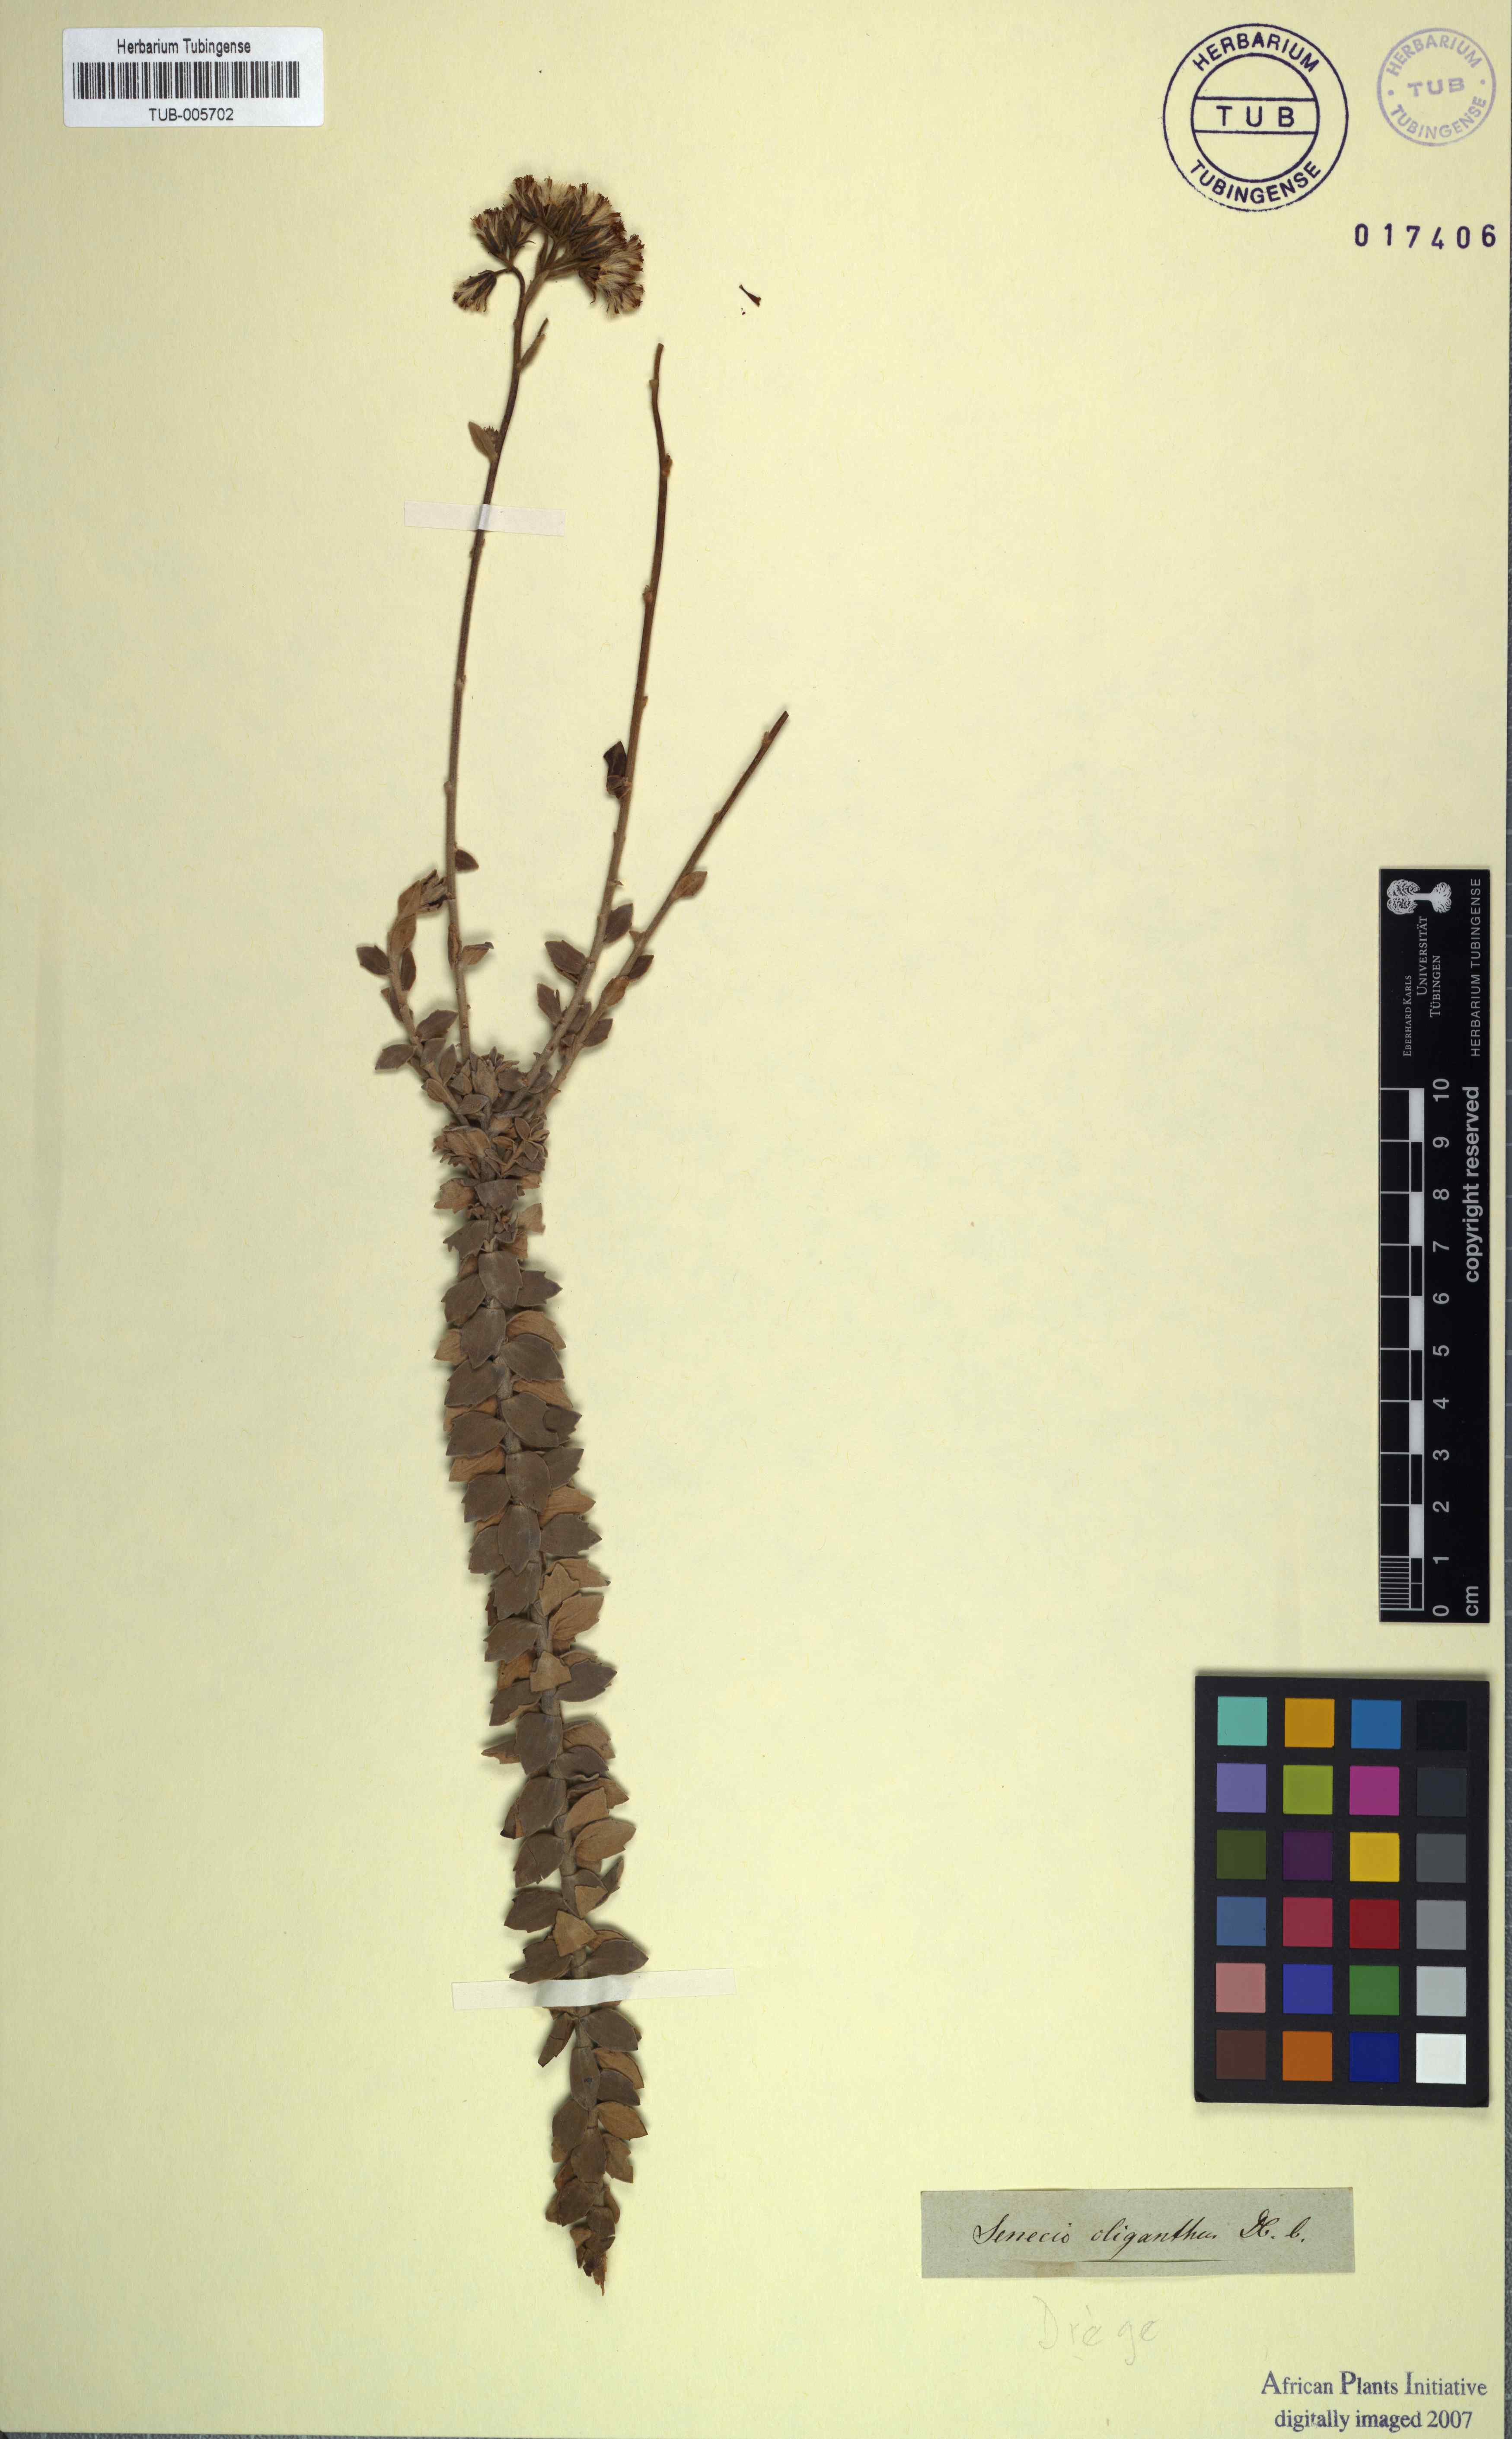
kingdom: Plantae
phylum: Tracheophyta
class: Magnoliopsida
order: Asterales
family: Asteraceae
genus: Senecio
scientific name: Senecio pauciflosculosus
